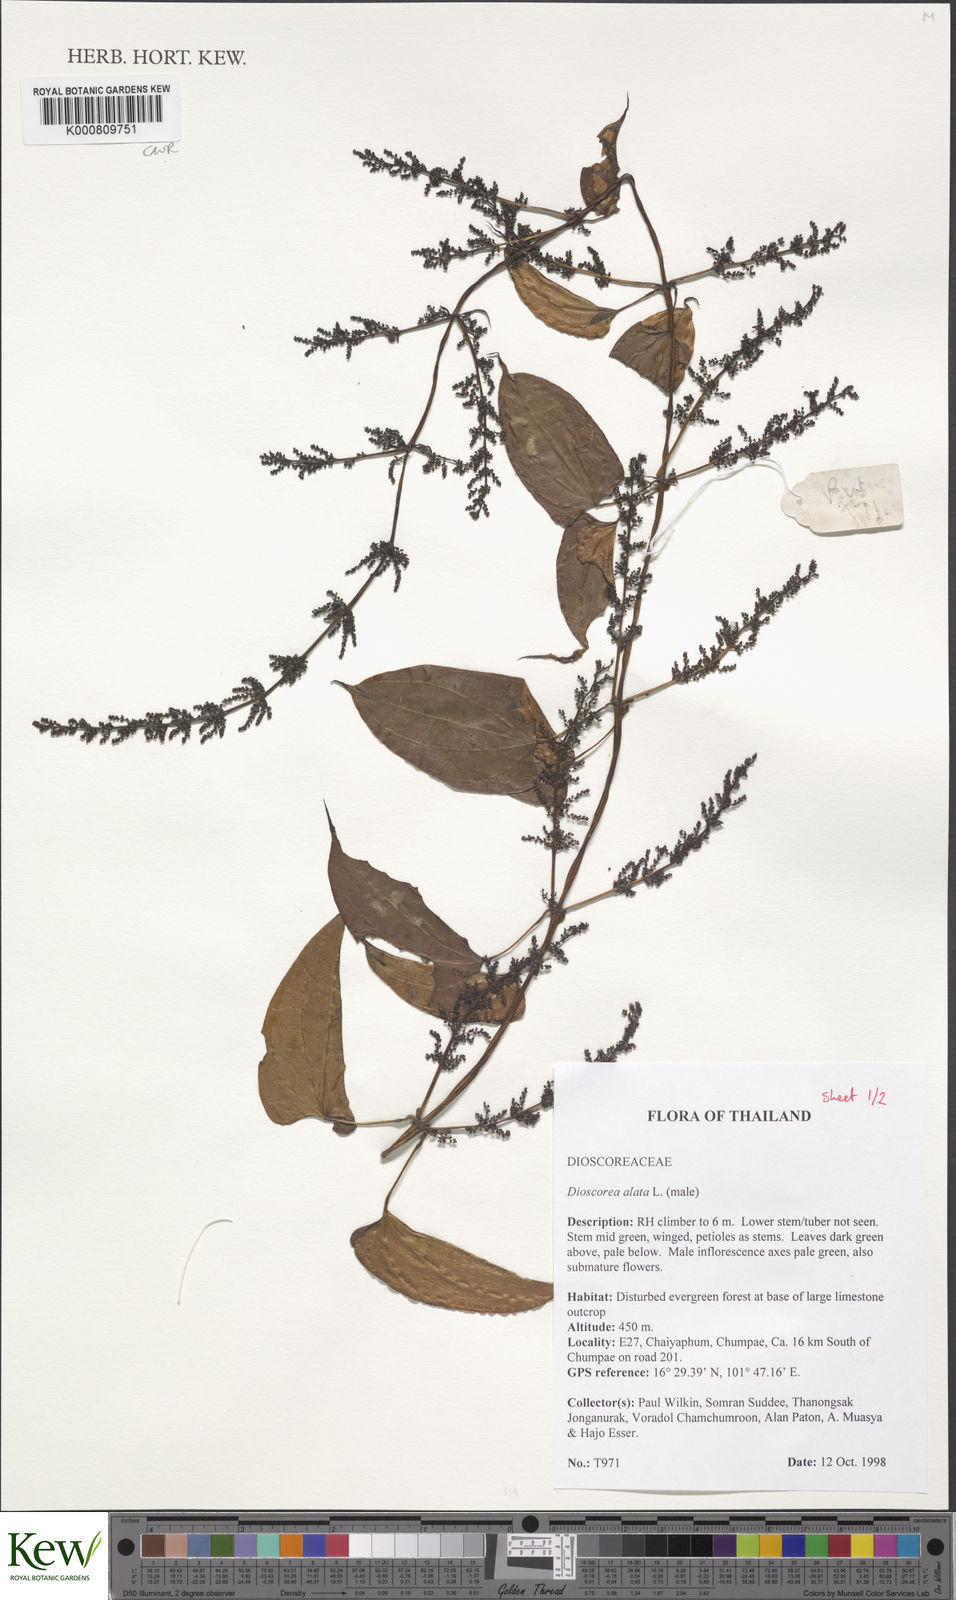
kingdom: Plantae
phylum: Tracheophyta
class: Liliopsida
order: Dioscoreales
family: Dioscoreaceae
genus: Dioscorea
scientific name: Dioscorea alata
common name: Water yam
